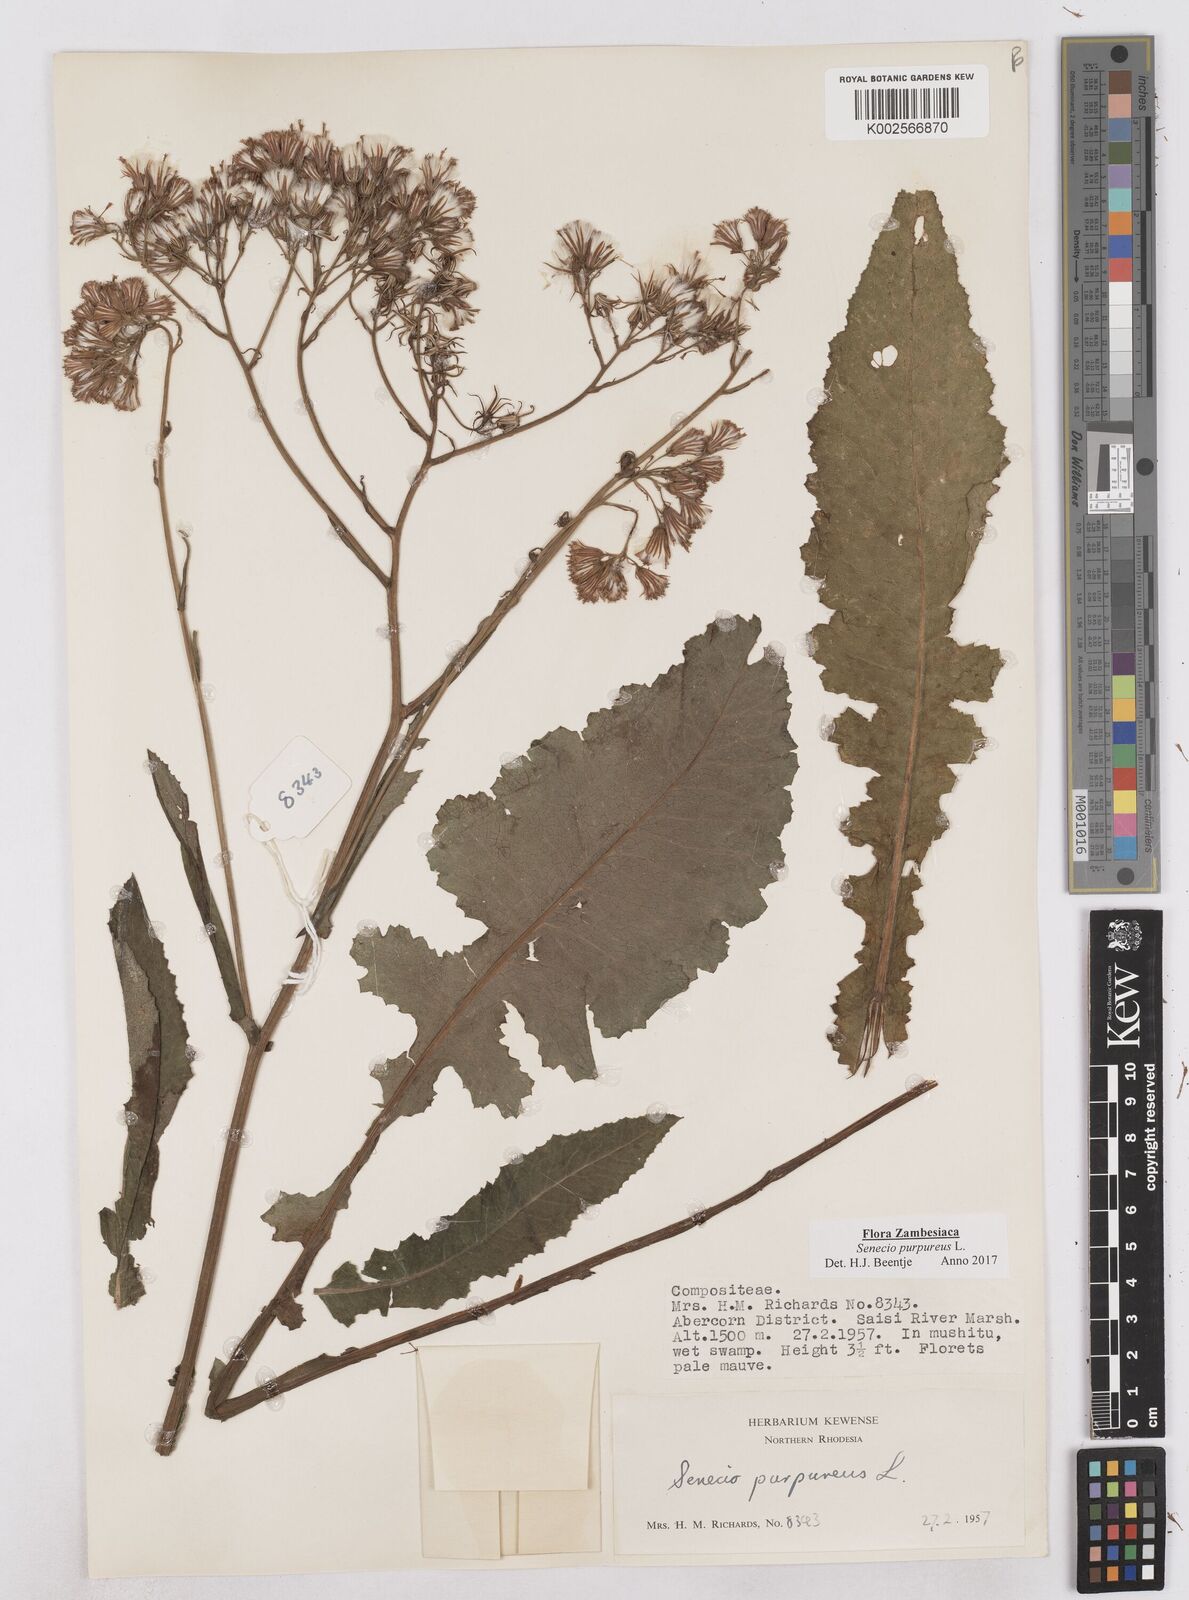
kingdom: Plantae
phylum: Tracheophyta
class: Magnoliopsida
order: Asterales
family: Asteraceae
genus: Senecio
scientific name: Senecio purpureus
